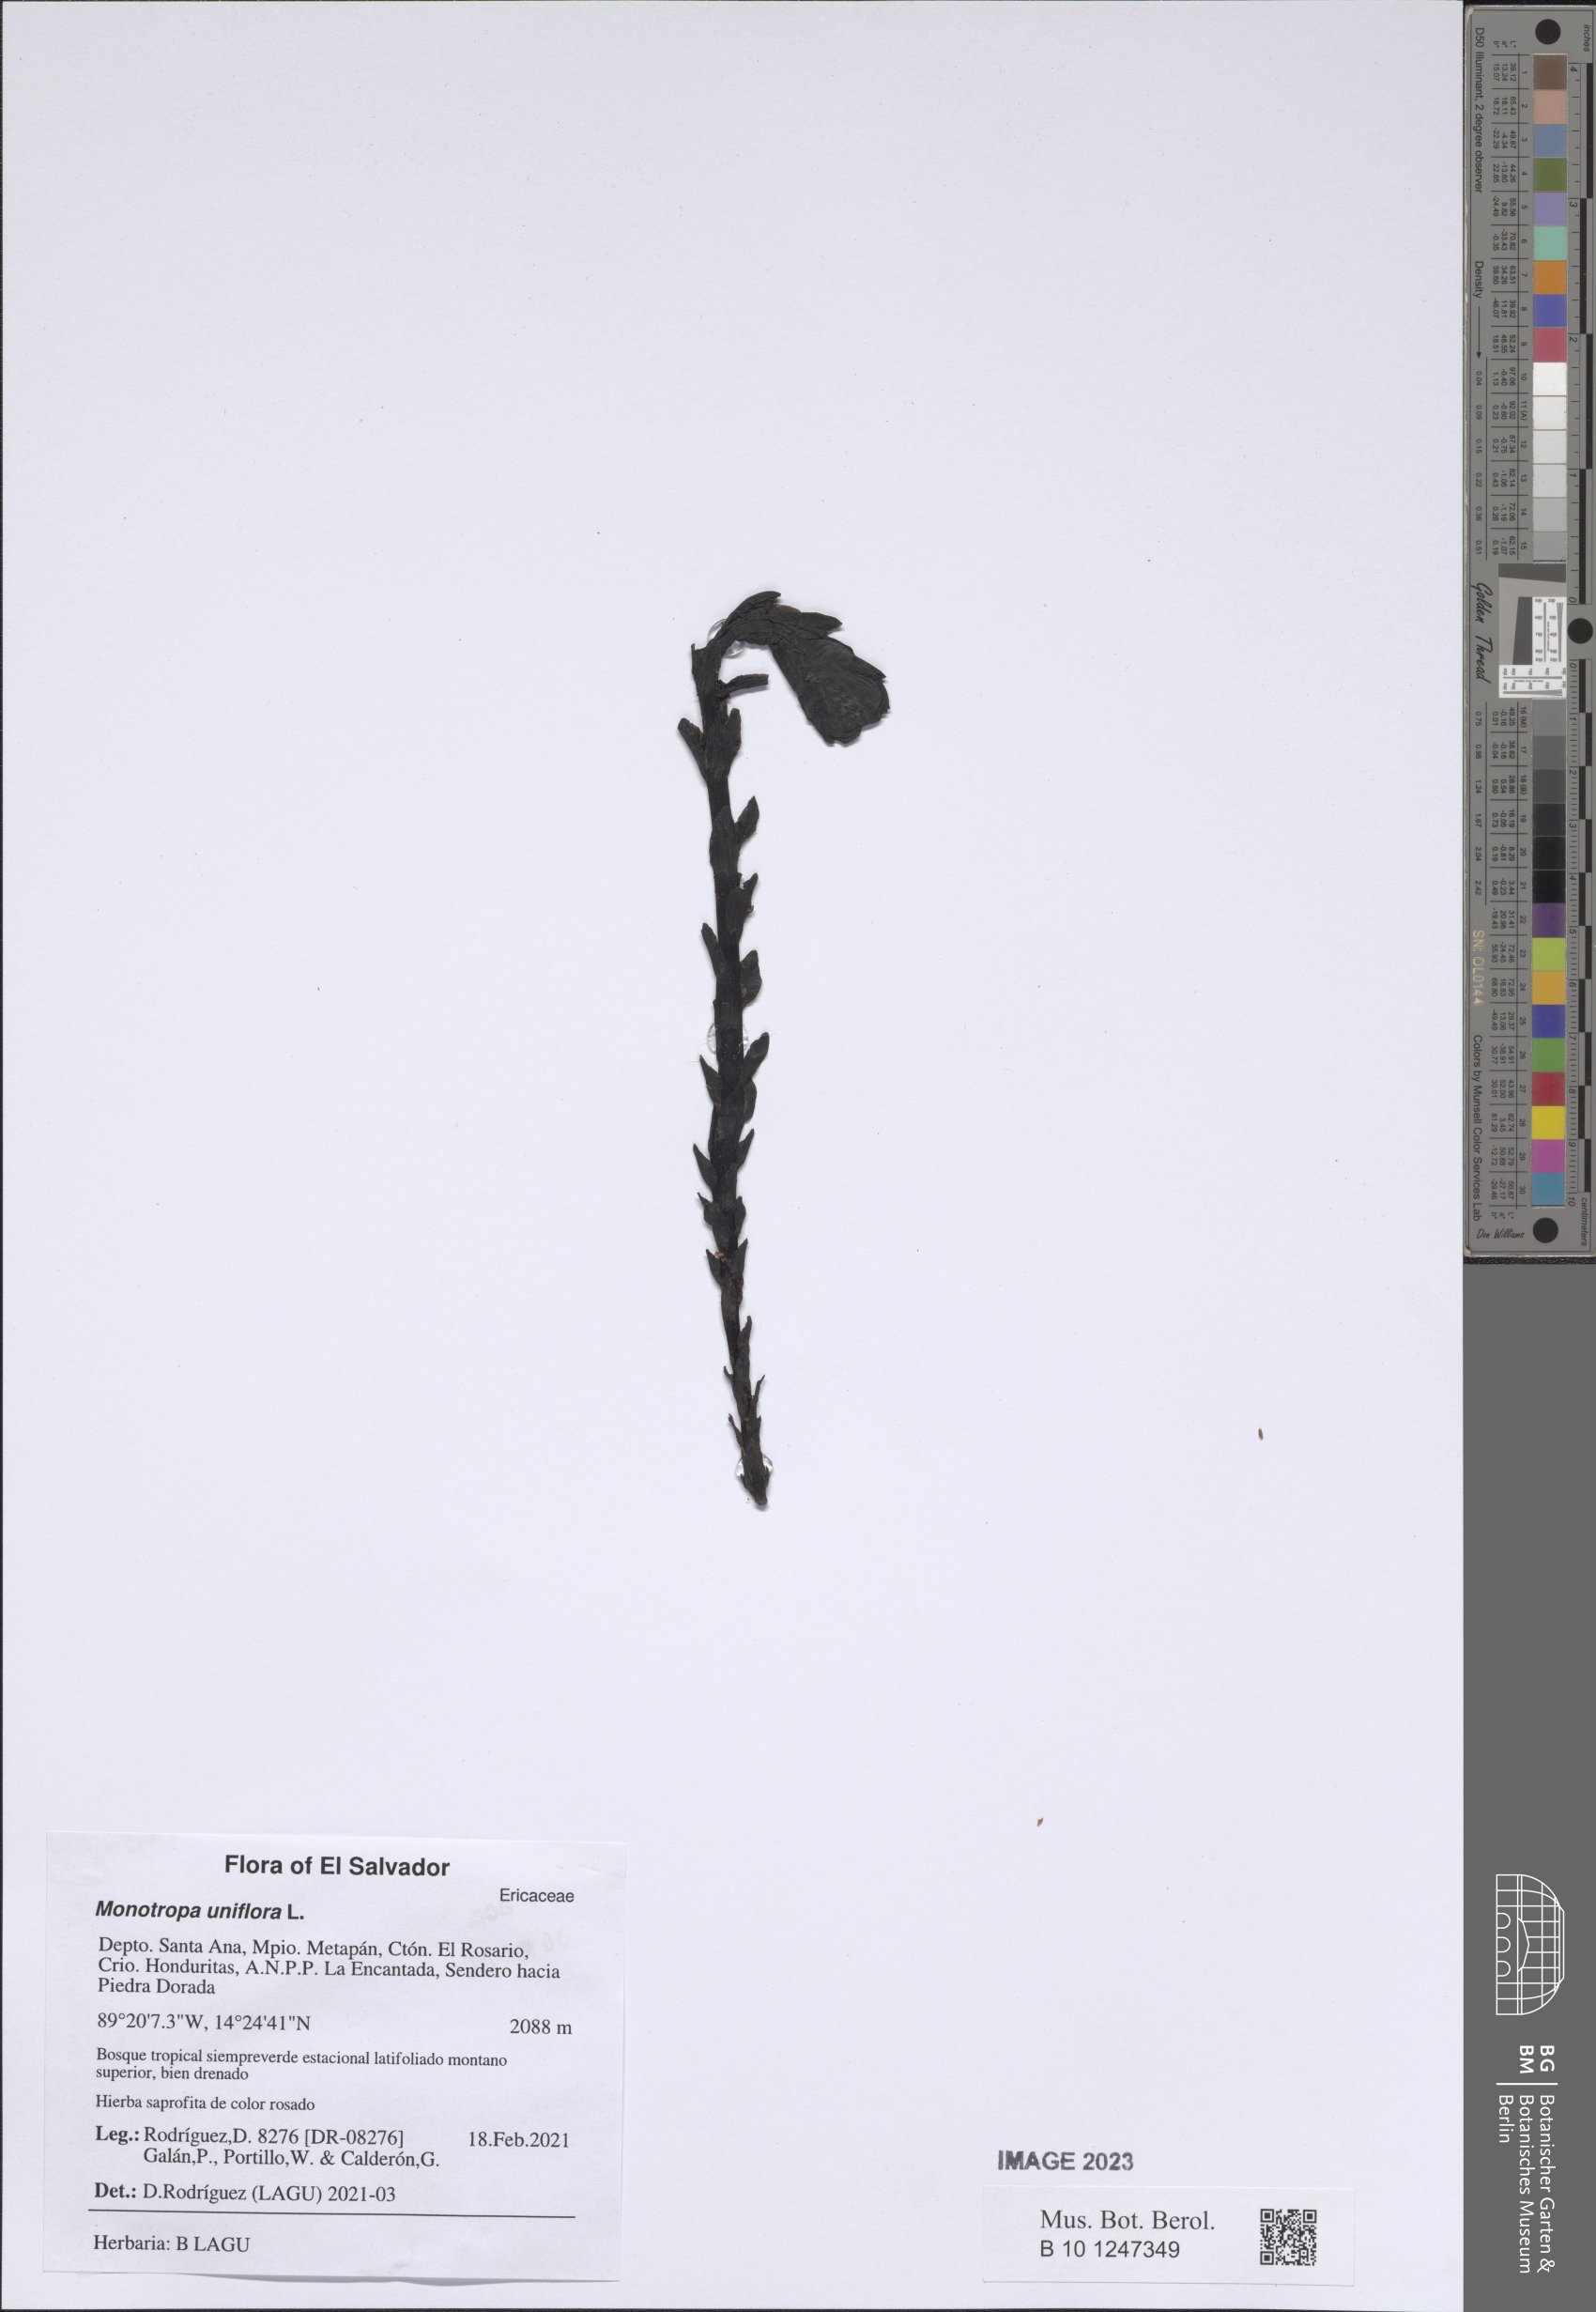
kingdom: Plantae
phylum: Tracheophyta
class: Magnoliopsida
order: Ericales
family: Ericaceae
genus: Monotropa
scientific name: Monotropa uniflora
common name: Convulsion root
